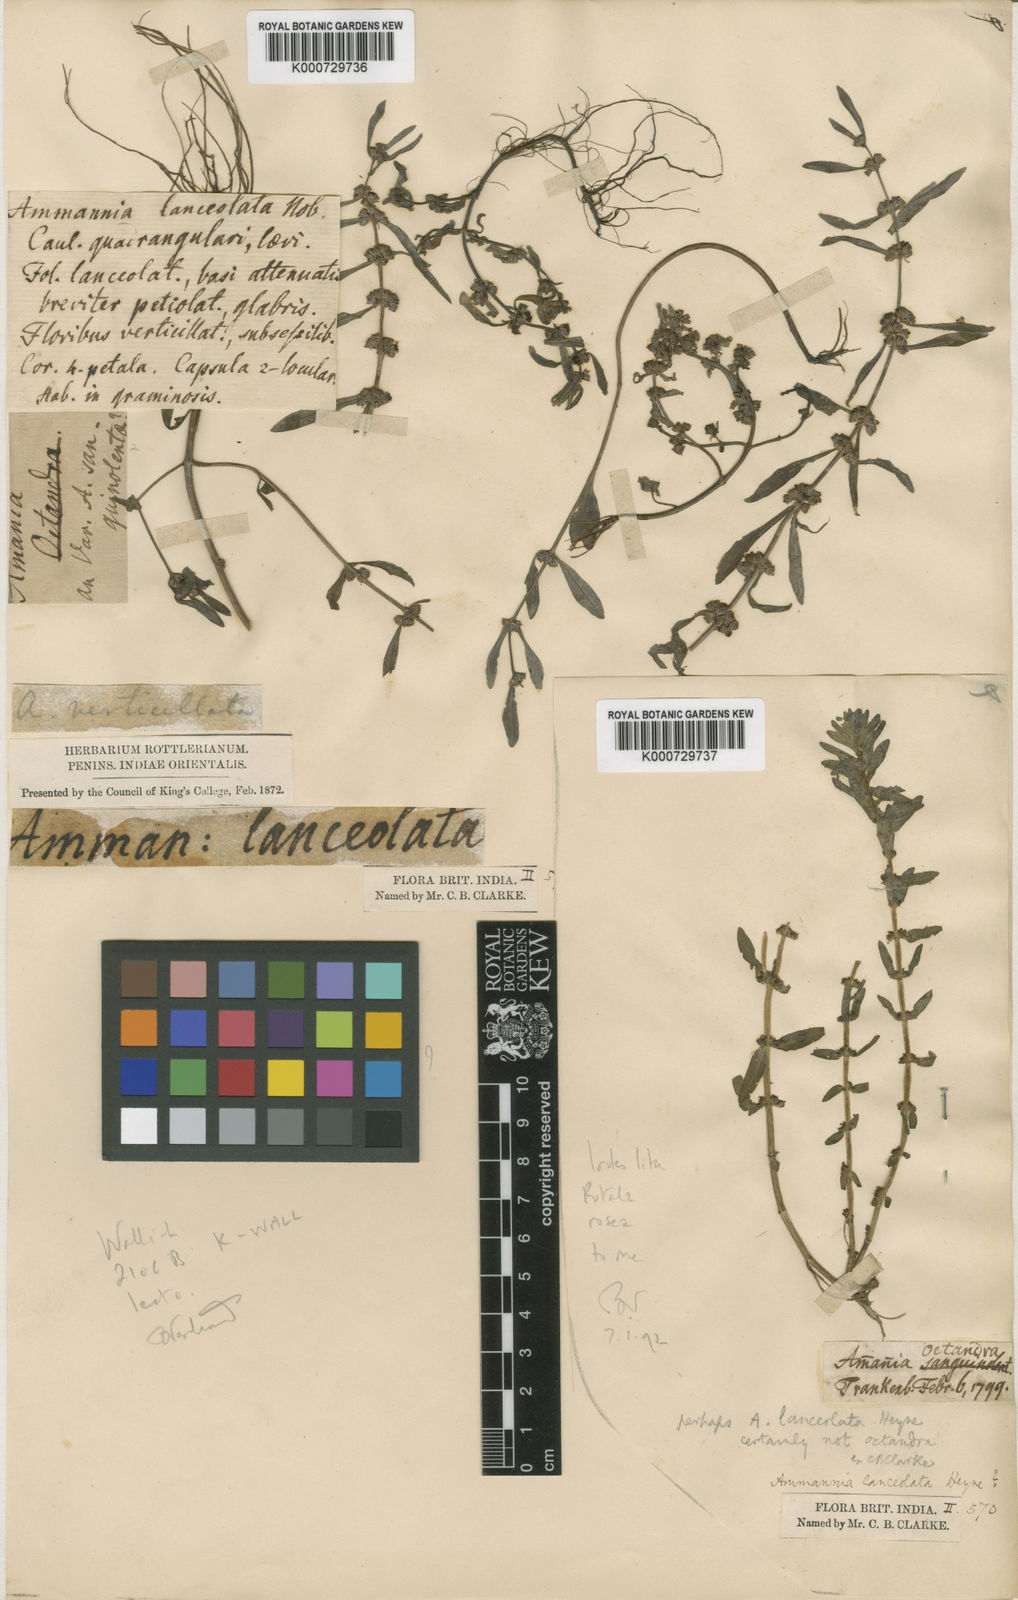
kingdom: Plantae
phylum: Tracheophyta
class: Magnoliopsida
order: Myrtales
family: Lythraceae
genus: Ammannia
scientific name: Ammannia prostrata
